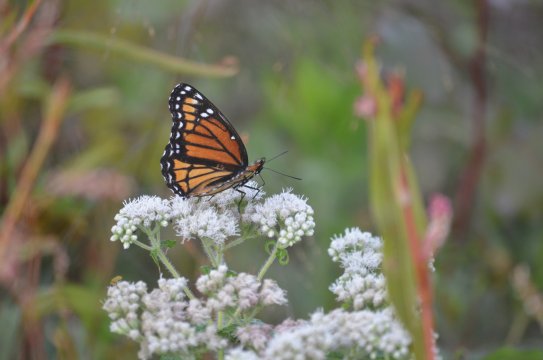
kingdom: Animalia
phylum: Arthropoda
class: Insecta
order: Lepidoptera
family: Nymphalidae
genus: Limenitis
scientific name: Limenitis archippus
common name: Viceroy
